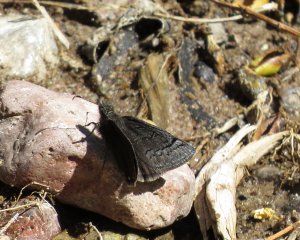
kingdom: Animalia
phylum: Arthropoda
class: Insecta
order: Lepidoptera
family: Hesperiidae
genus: Erynnis
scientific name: Erynnis
